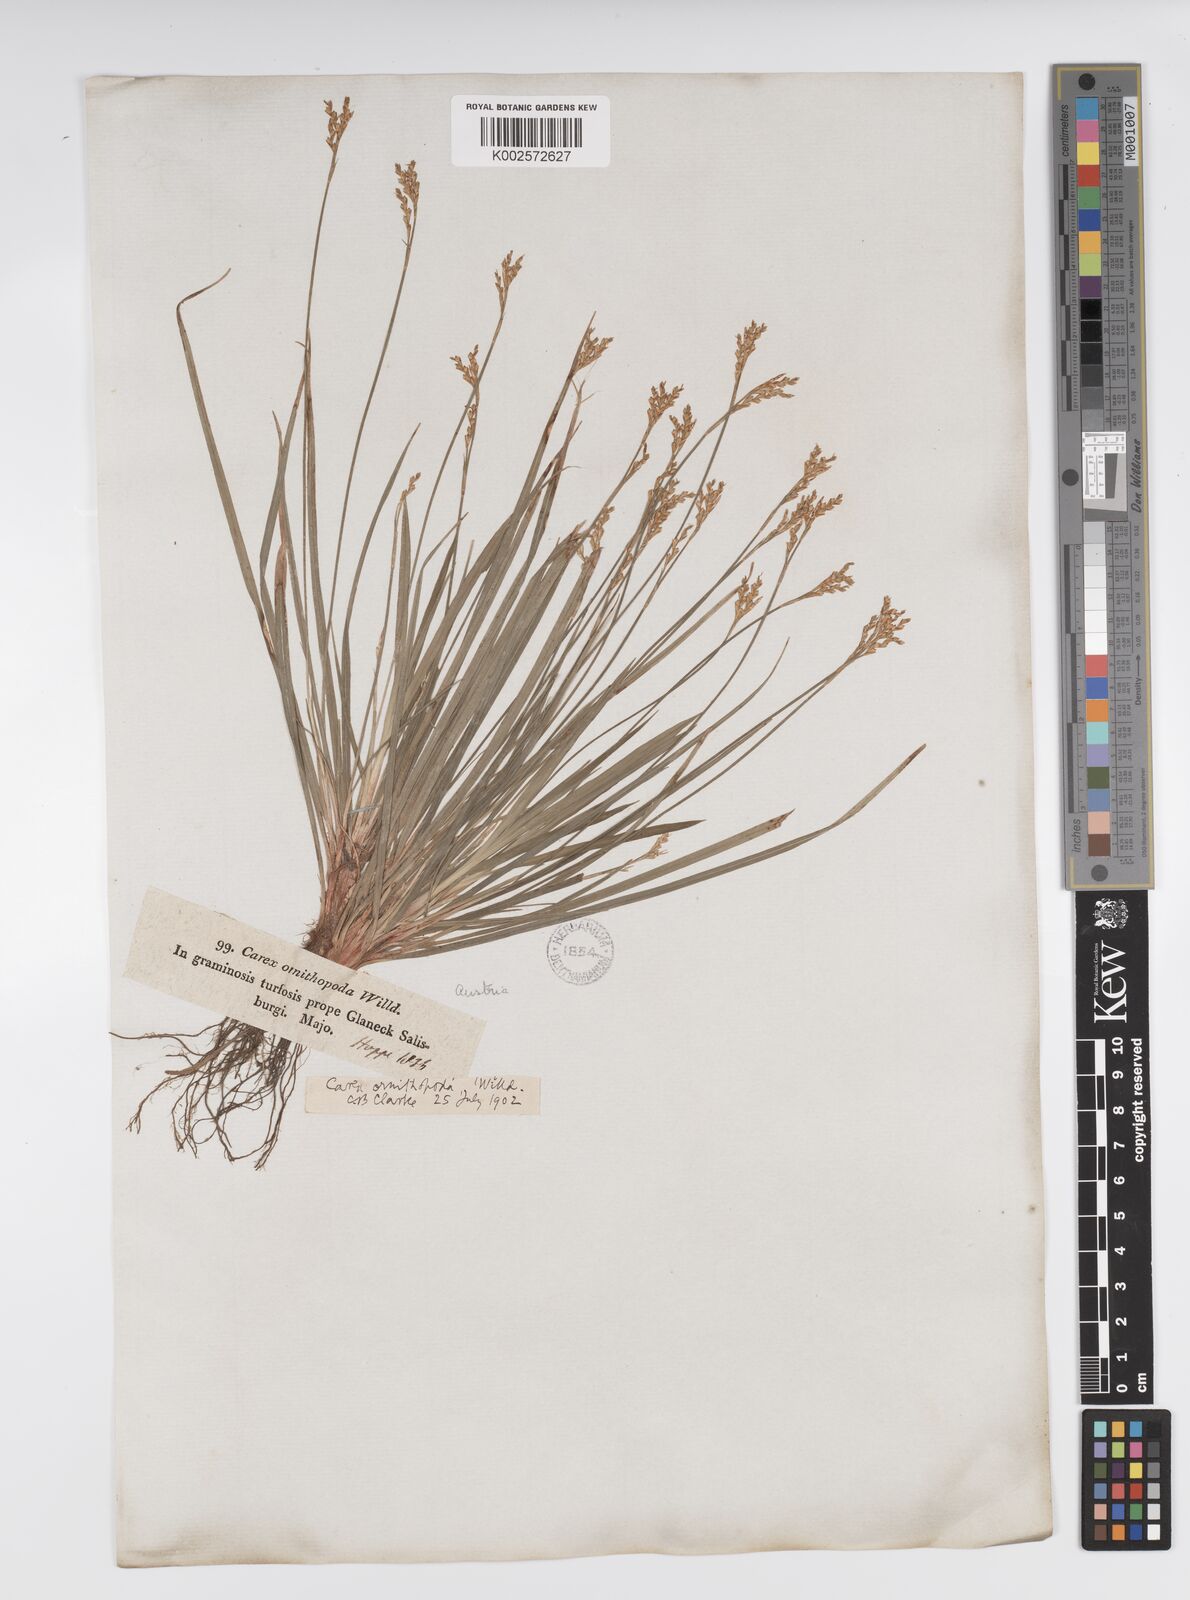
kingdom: Plantae
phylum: Tracheophyta
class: Liliopsida
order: Poales
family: Cyperaceae
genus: Carex
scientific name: Carex ornithopoda
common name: Bird's-foot sedge
